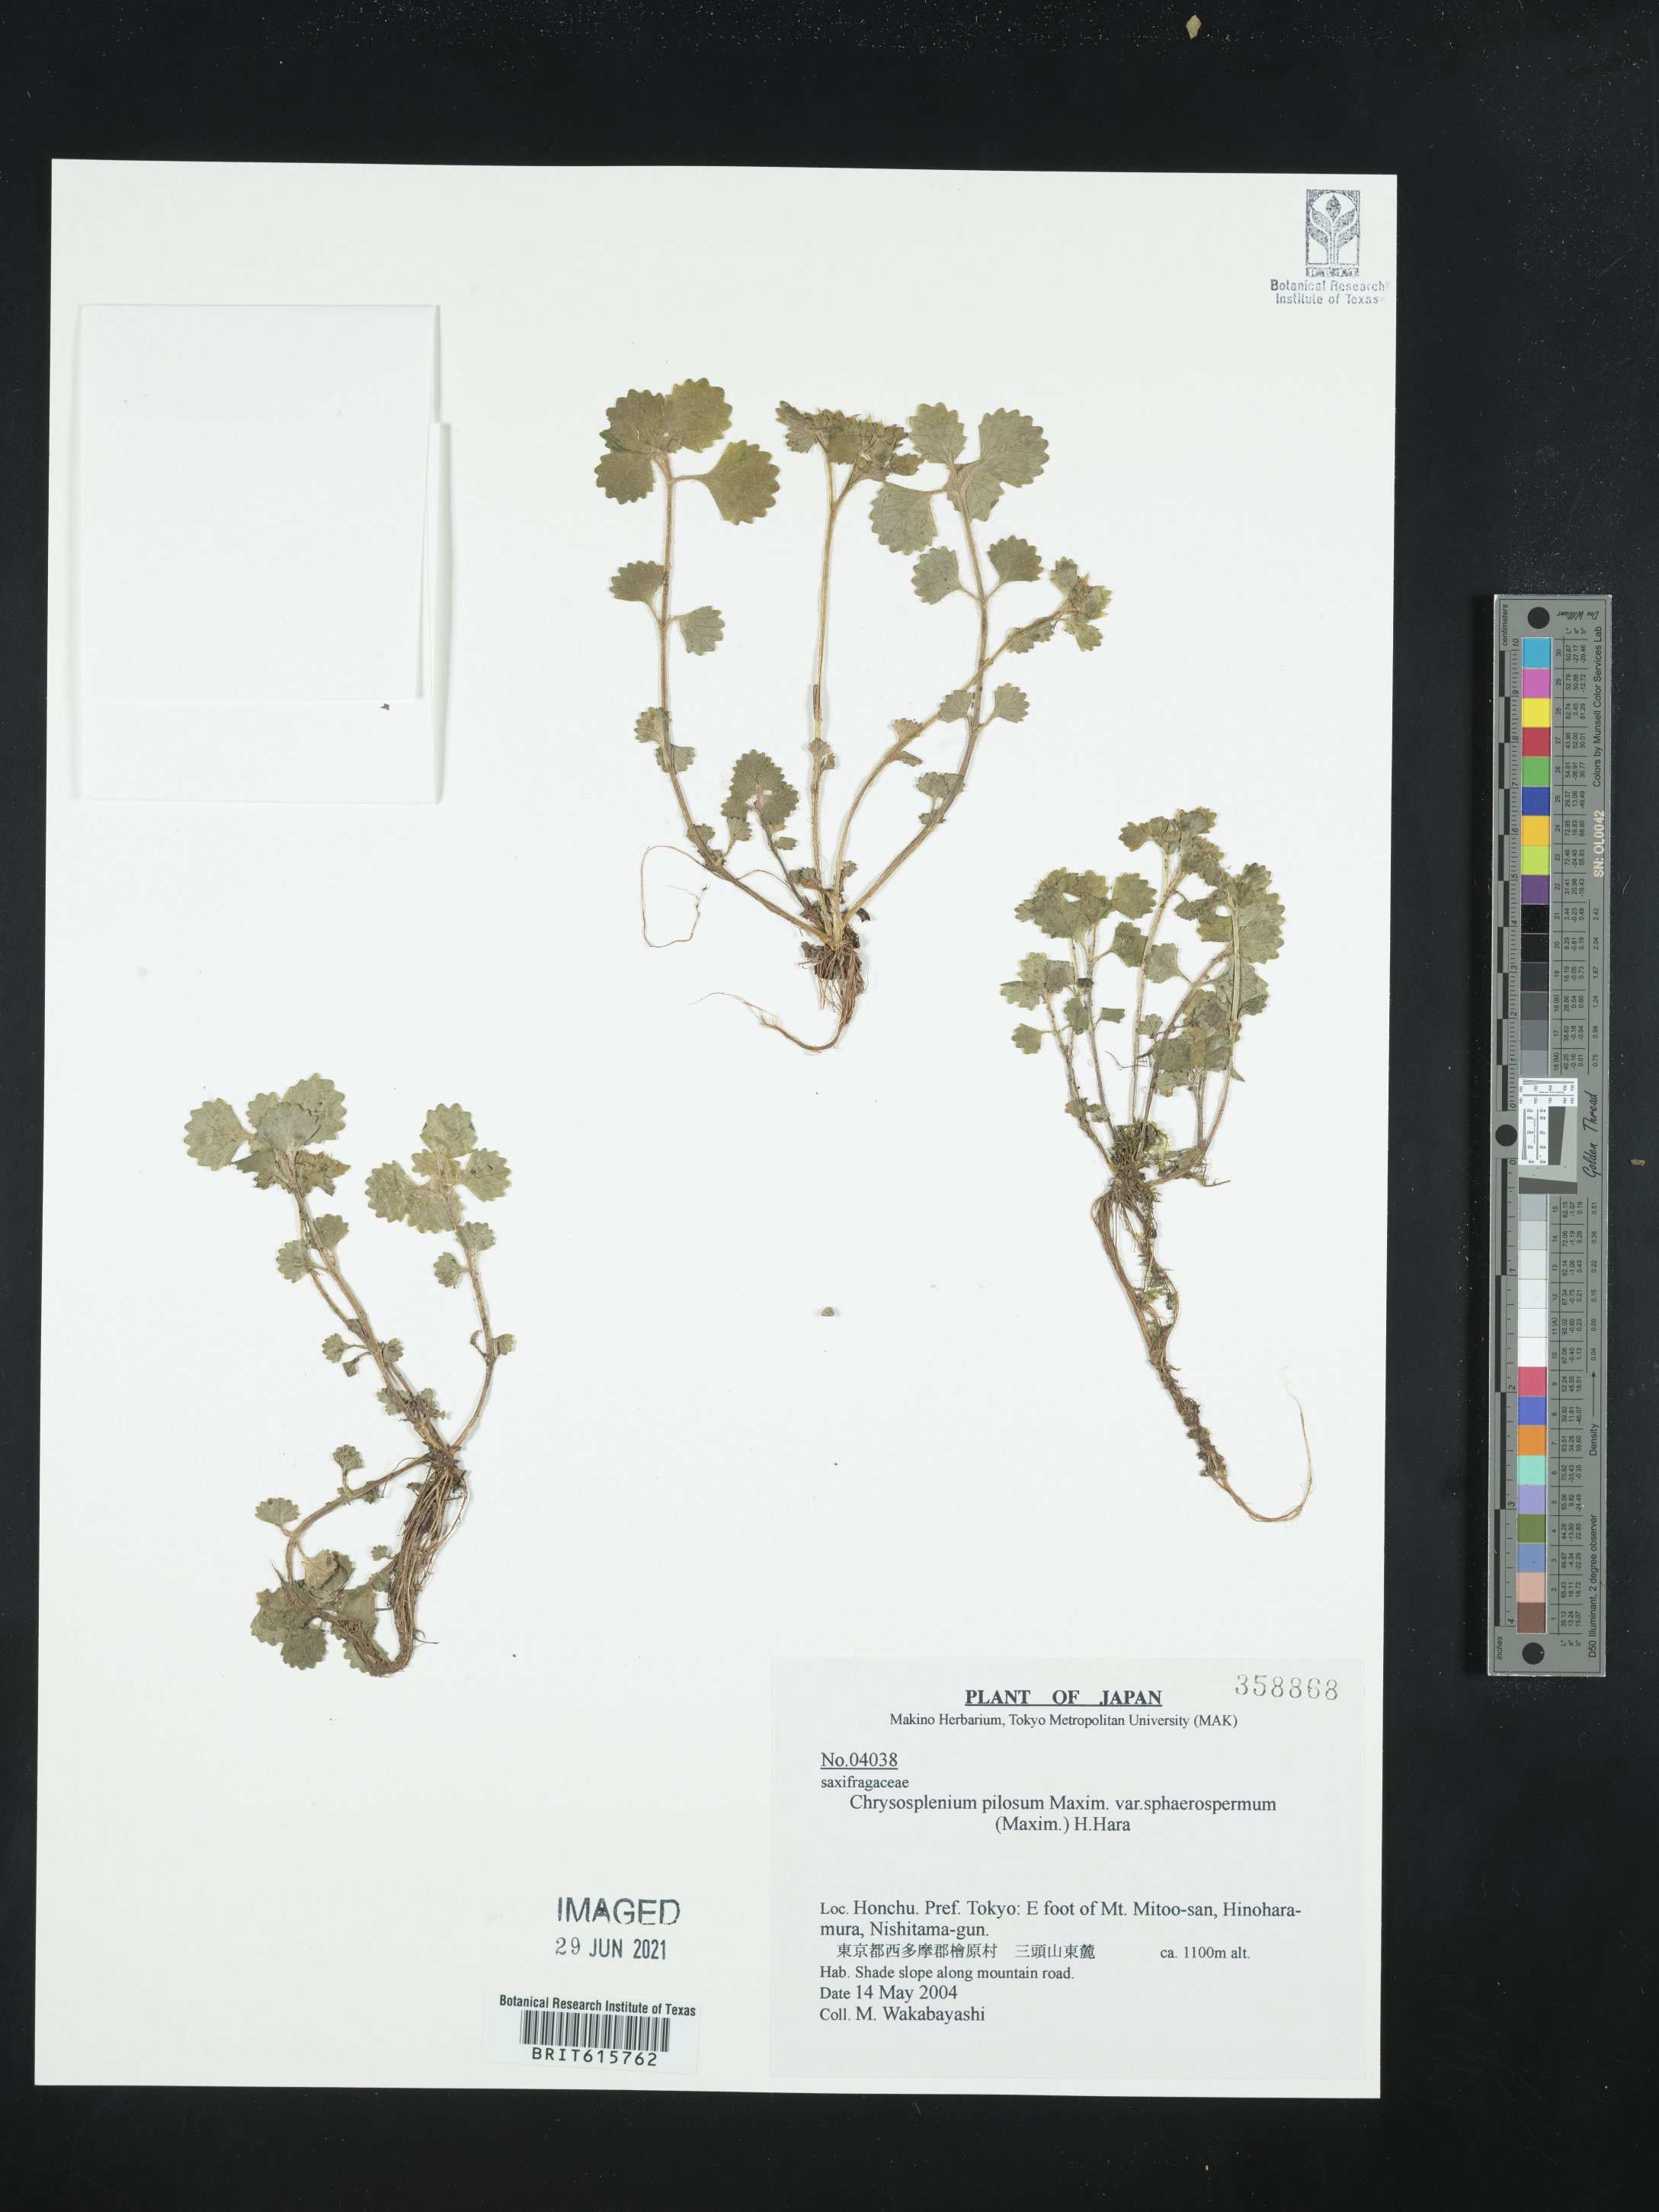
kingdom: Plantae
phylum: Tracheophyta
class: Magnoliopsida
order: Saxifragales
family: Saxifragaceae
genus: Chrysosplenium
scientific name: Chrysosplenium pilosum
